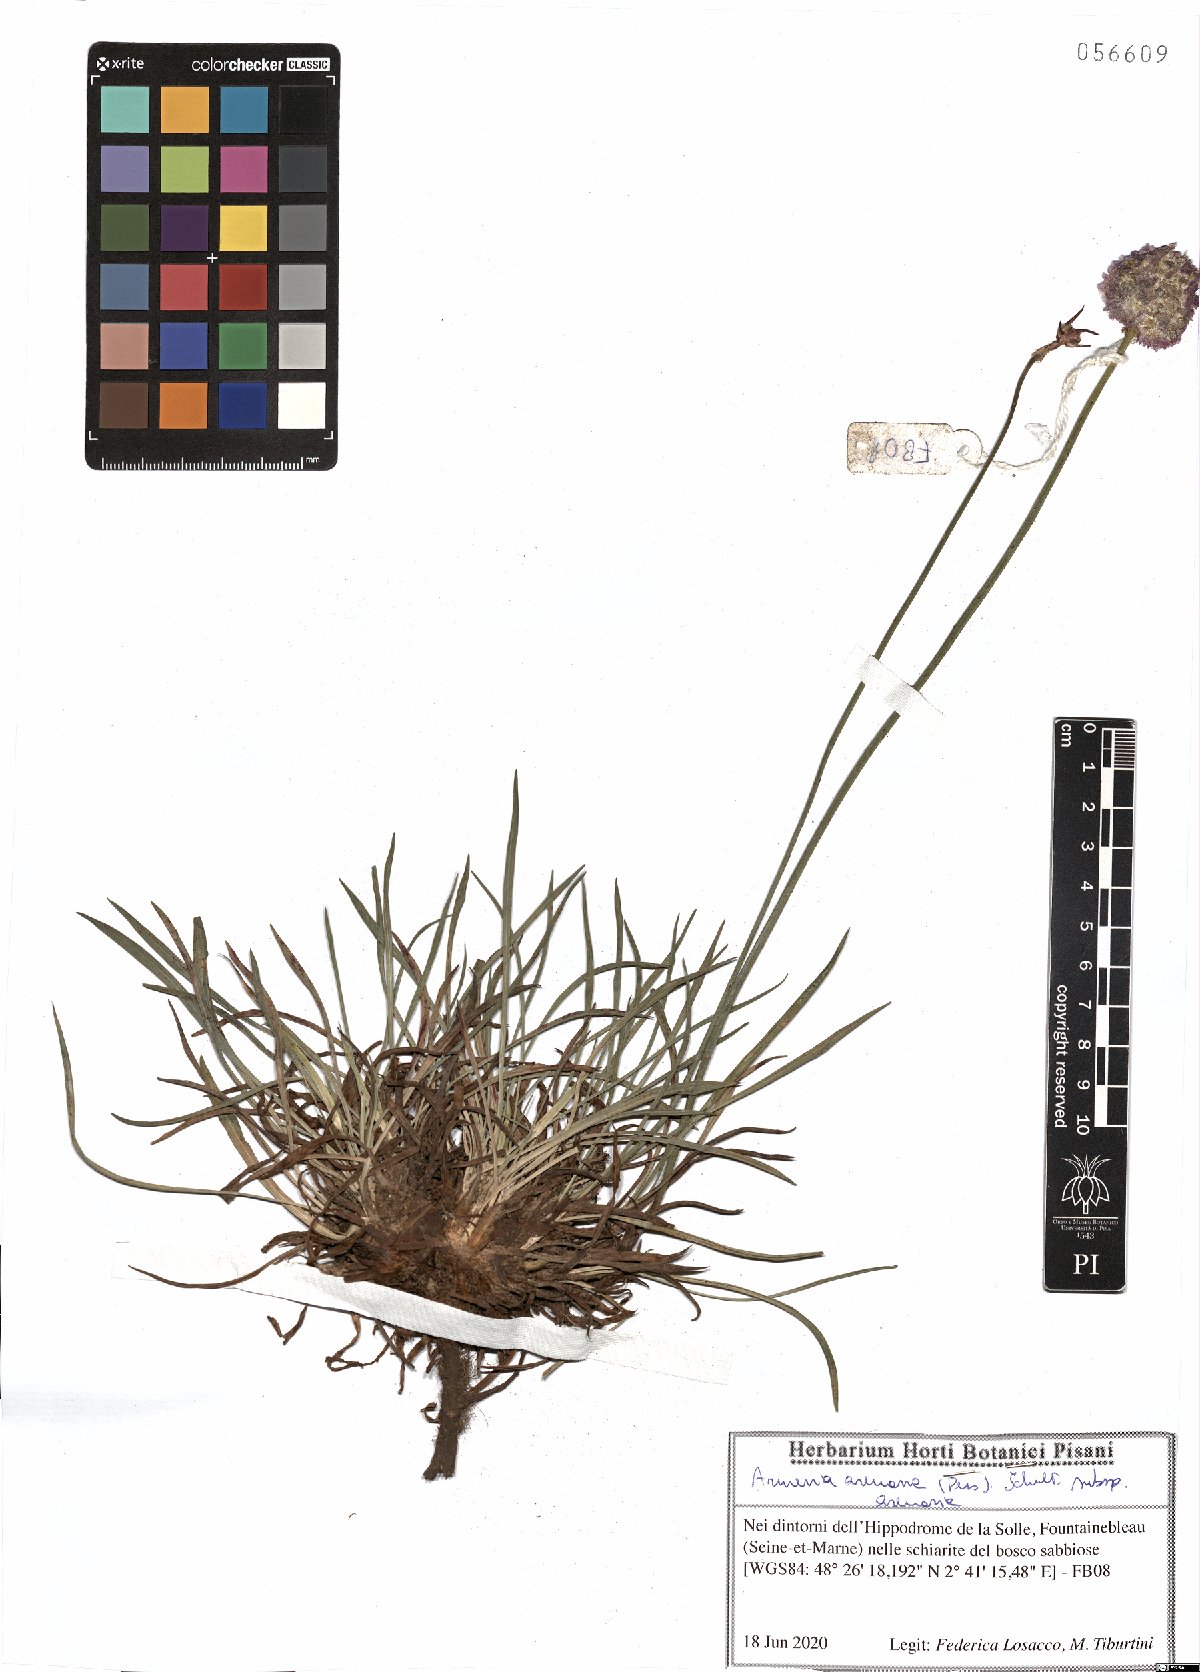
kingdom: Plantae
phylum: Tracheophyta
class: Magnoliopsida
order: Caryophyllales
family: Plumbaginaceae
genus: Armeria
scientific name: Armeria arenaria
